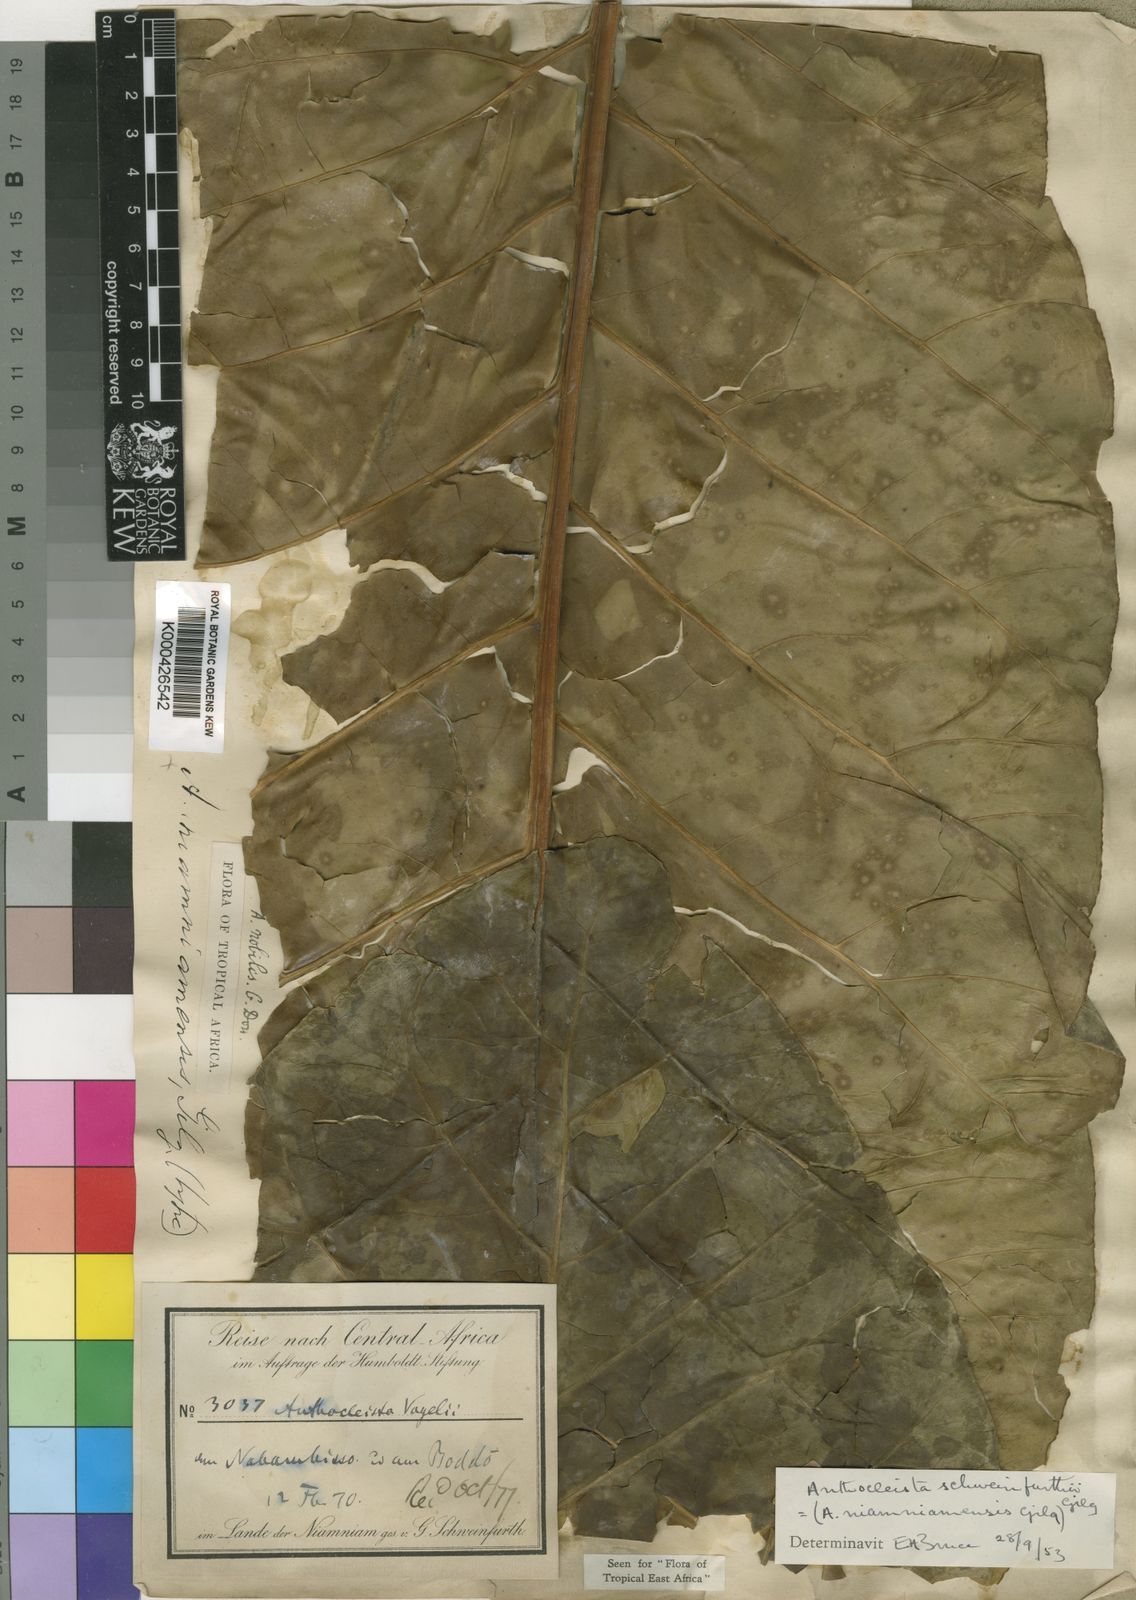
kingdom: Plantae
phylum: Tracheophyta
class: Magnoliopsida
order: Gentianales
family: Gentianaceae
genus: Anthocleista
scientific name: Anthocleista schweinfurthii
